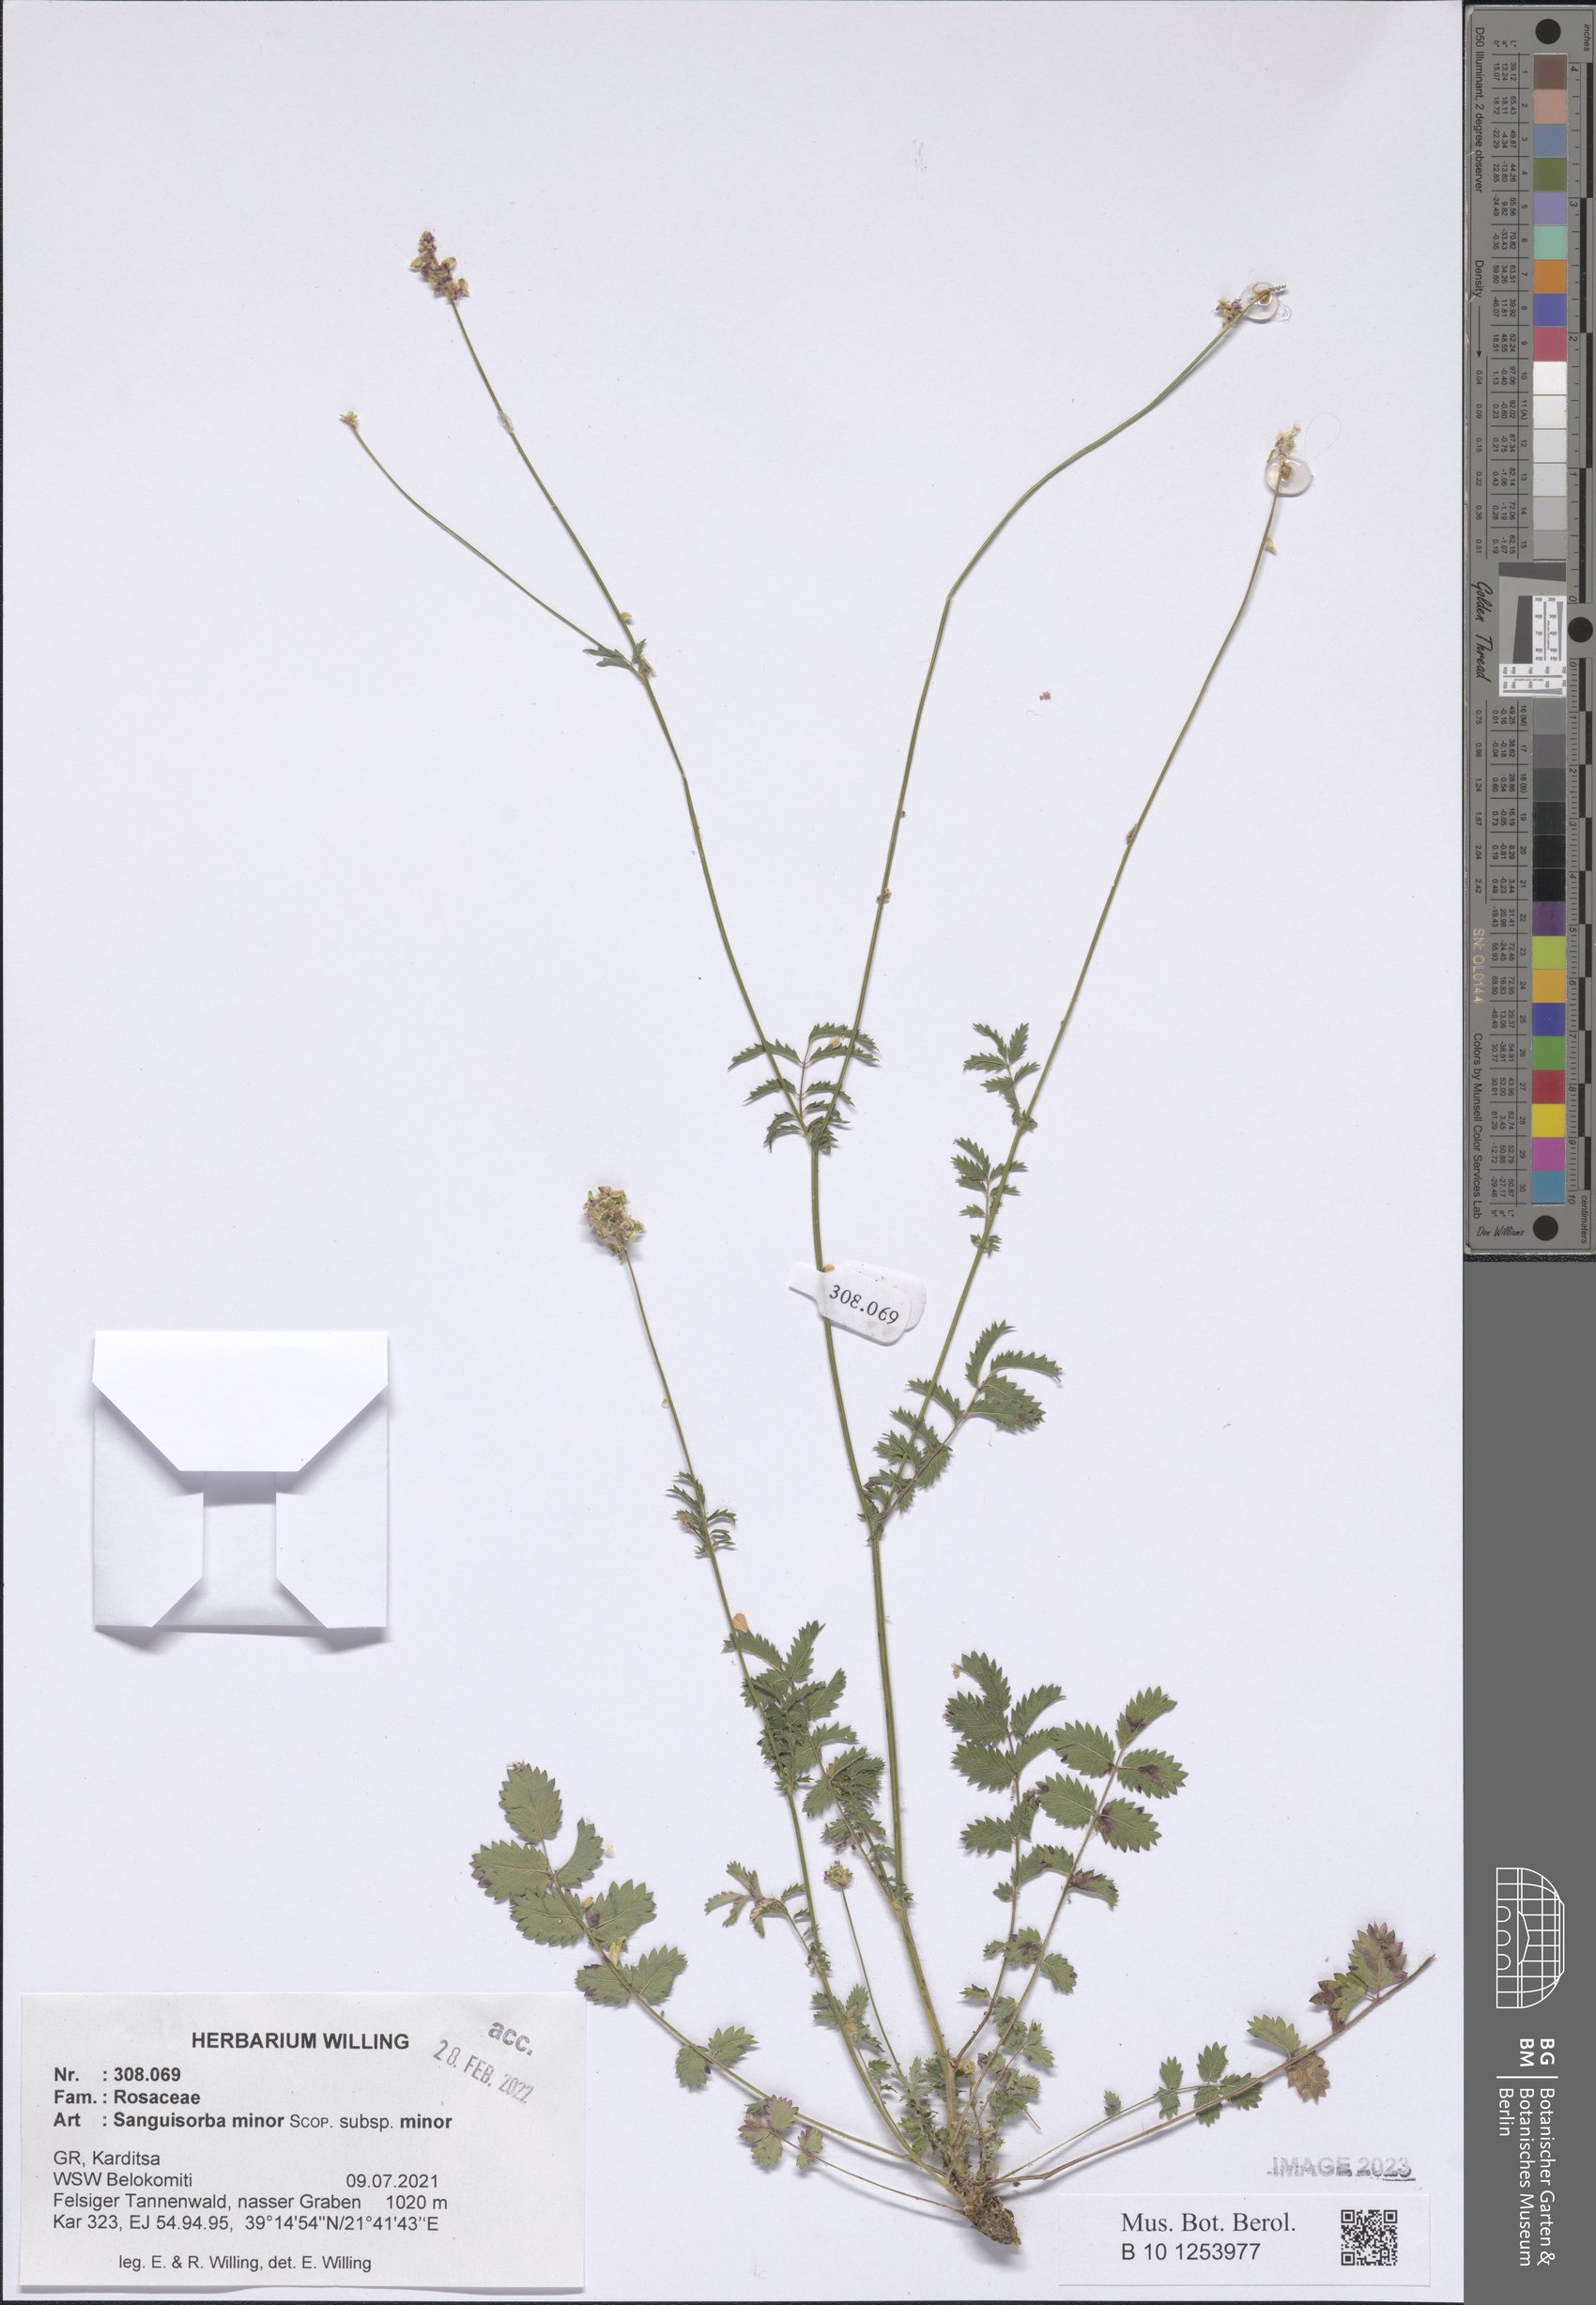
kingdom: Plantae
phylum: Tracheophyta
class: Magnoliopsida
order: Rosales
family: Rosaceae
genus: Poterium
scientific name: Poterium sanguisorba
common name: Salad burnet
